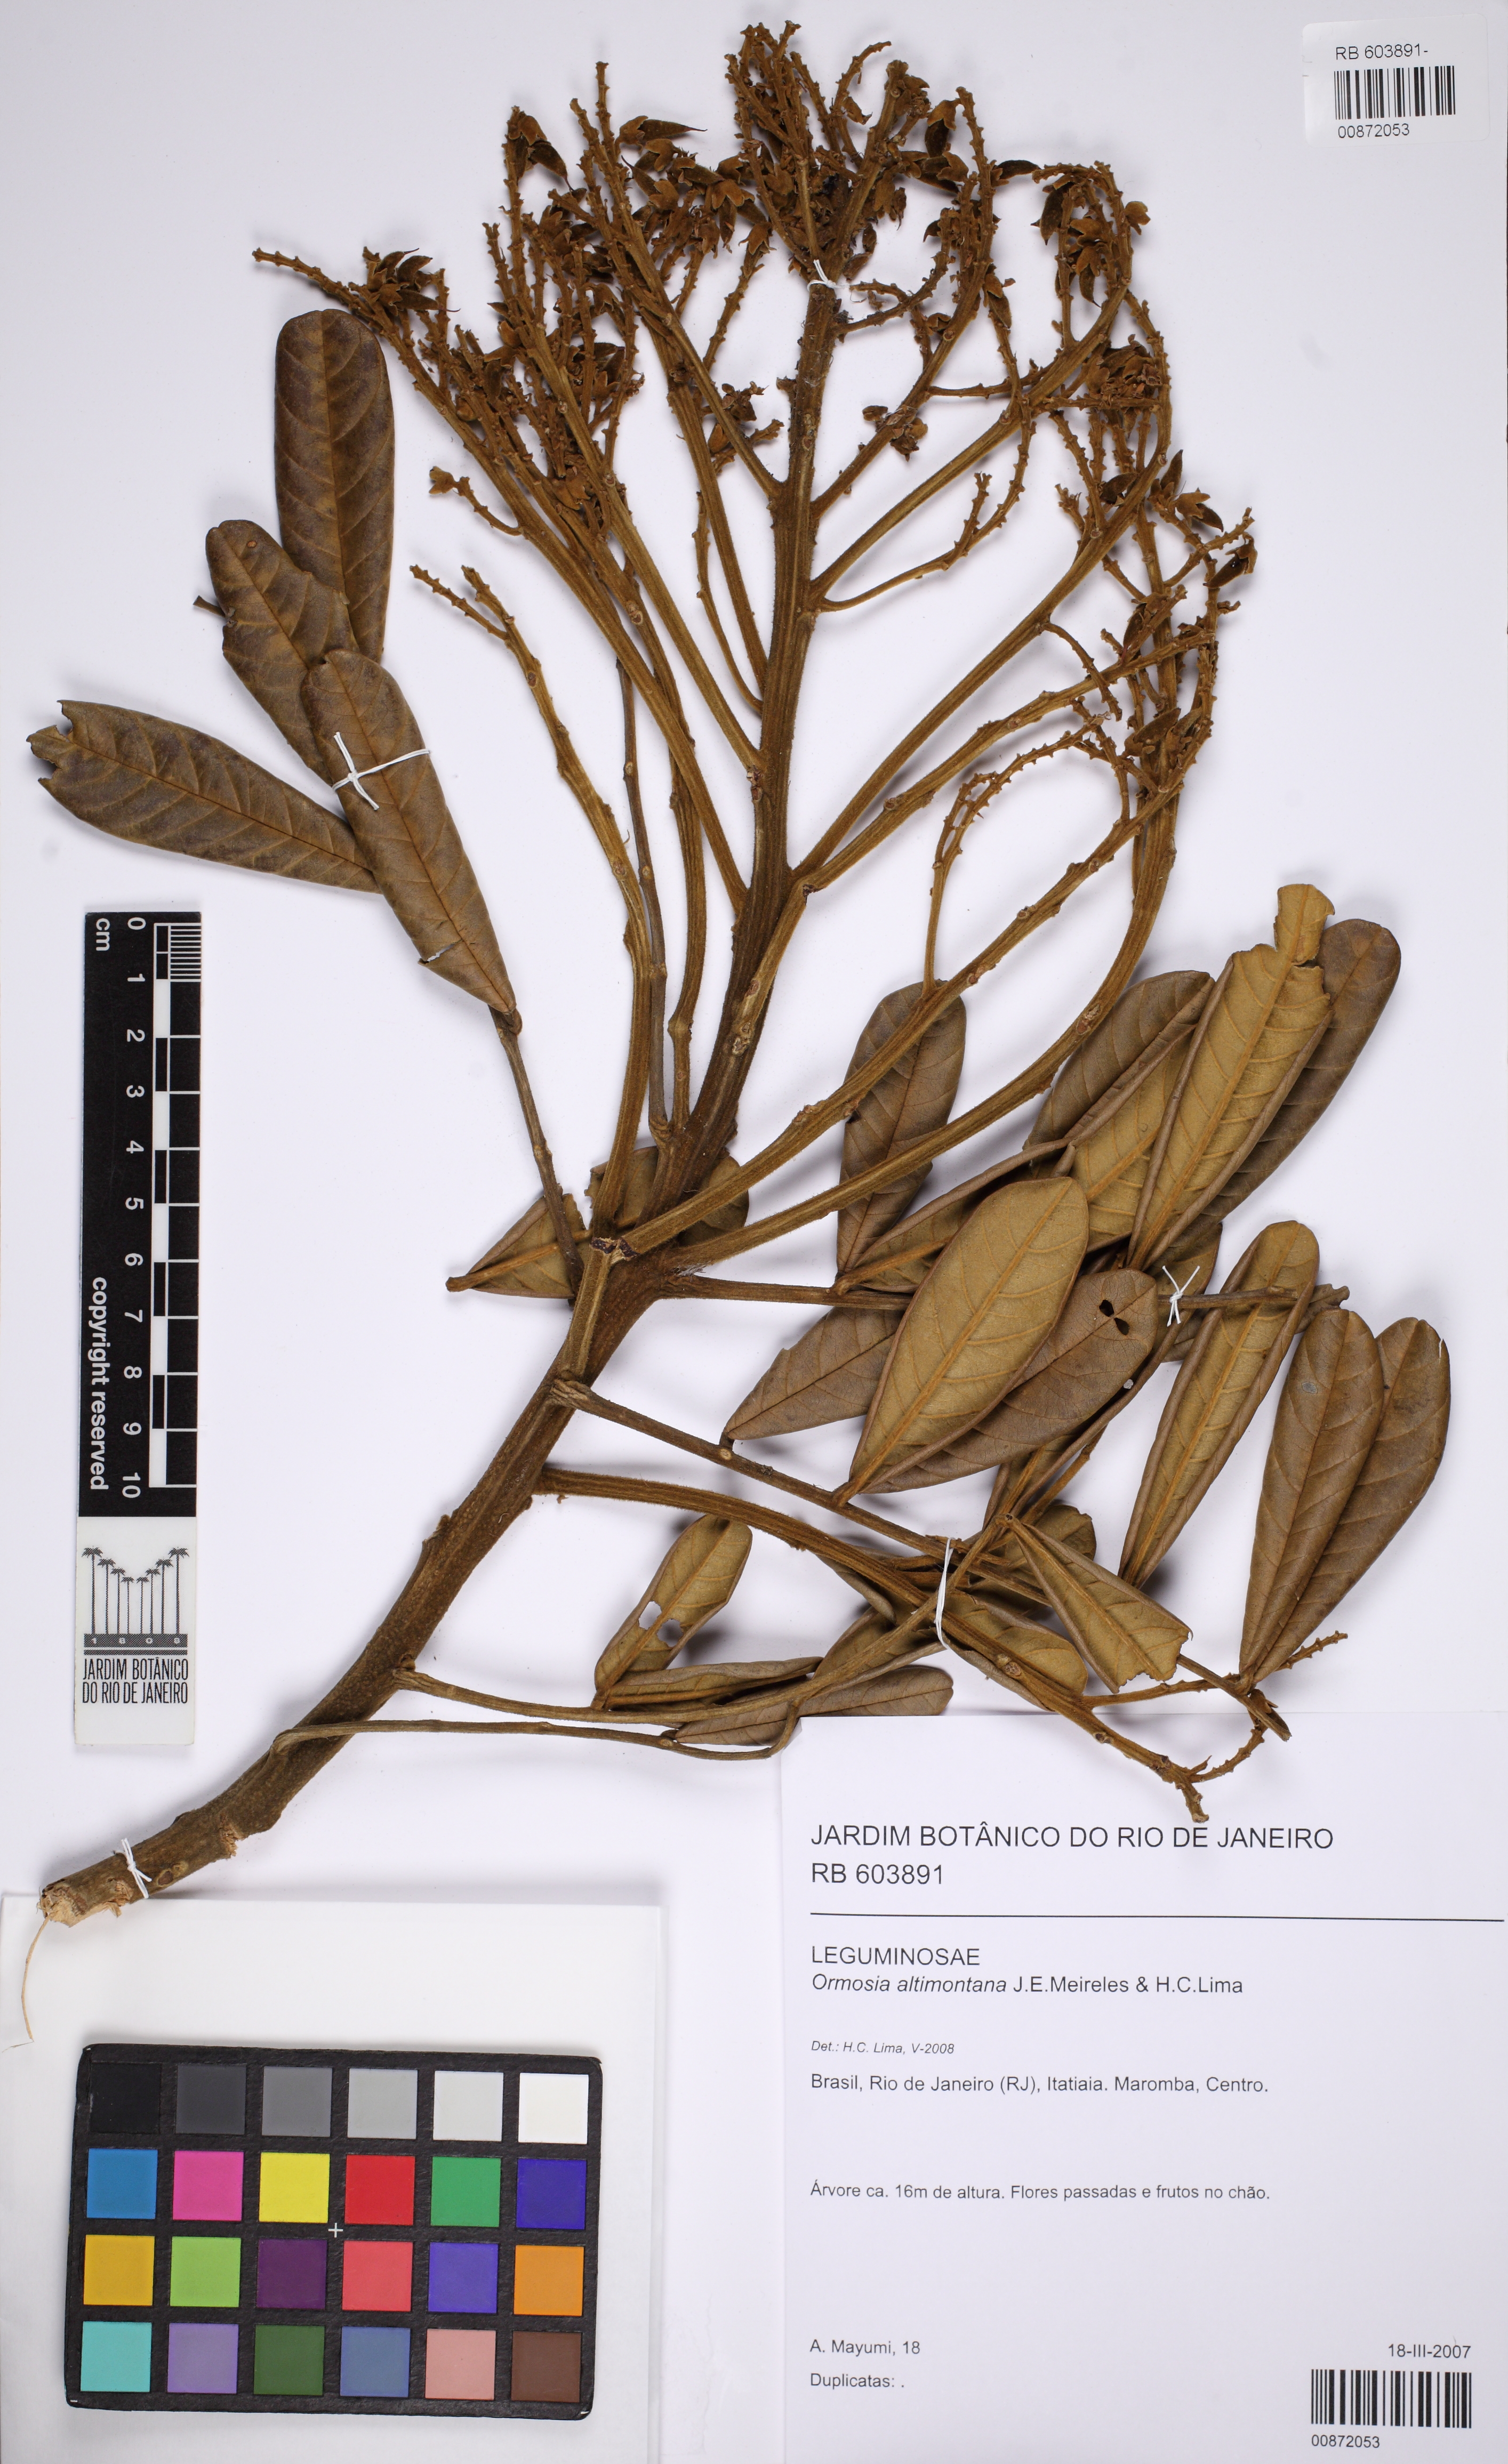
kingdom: Plantae
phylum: Tracheophyta
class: Magnoliopsida
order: Fabales
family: Fabaceae
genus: Ormosia
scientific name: Ormosia altimontana
